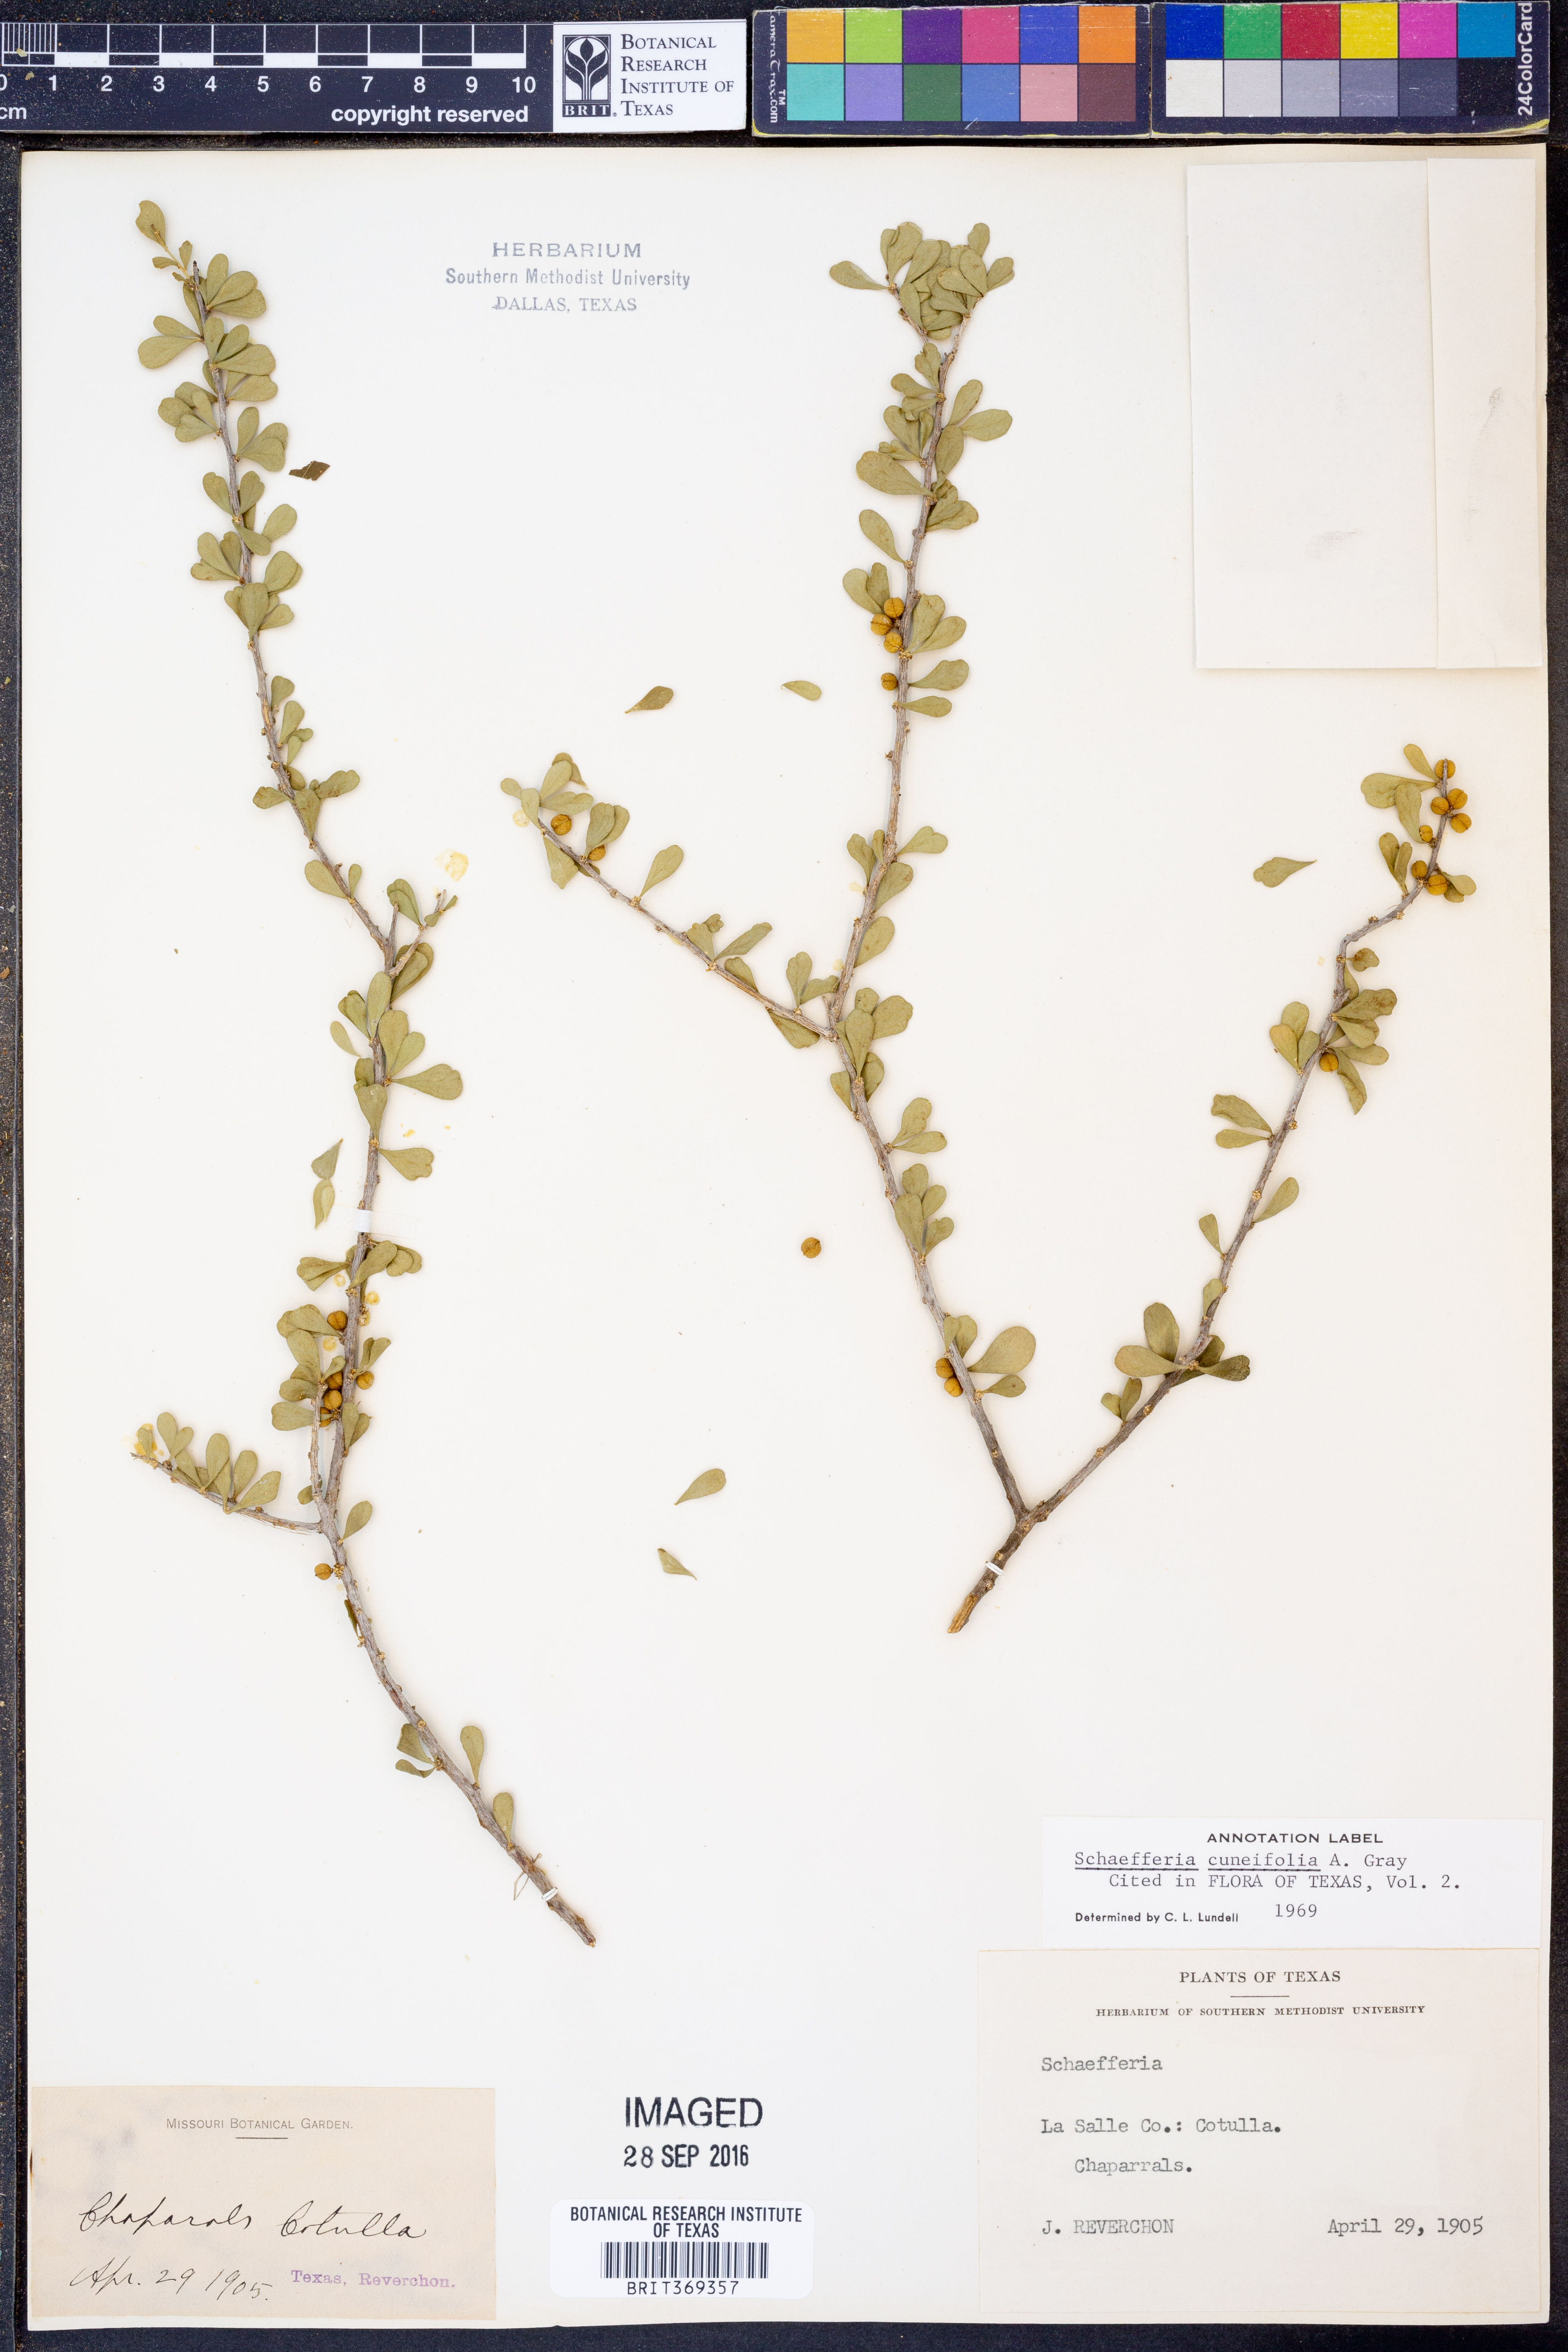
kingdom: Plantae
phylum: Tracheophyta
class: Magnoliopsida
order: Celastrales
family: Celastraceae
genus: Schaefferia
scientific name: Schaefferia cuneifolia
